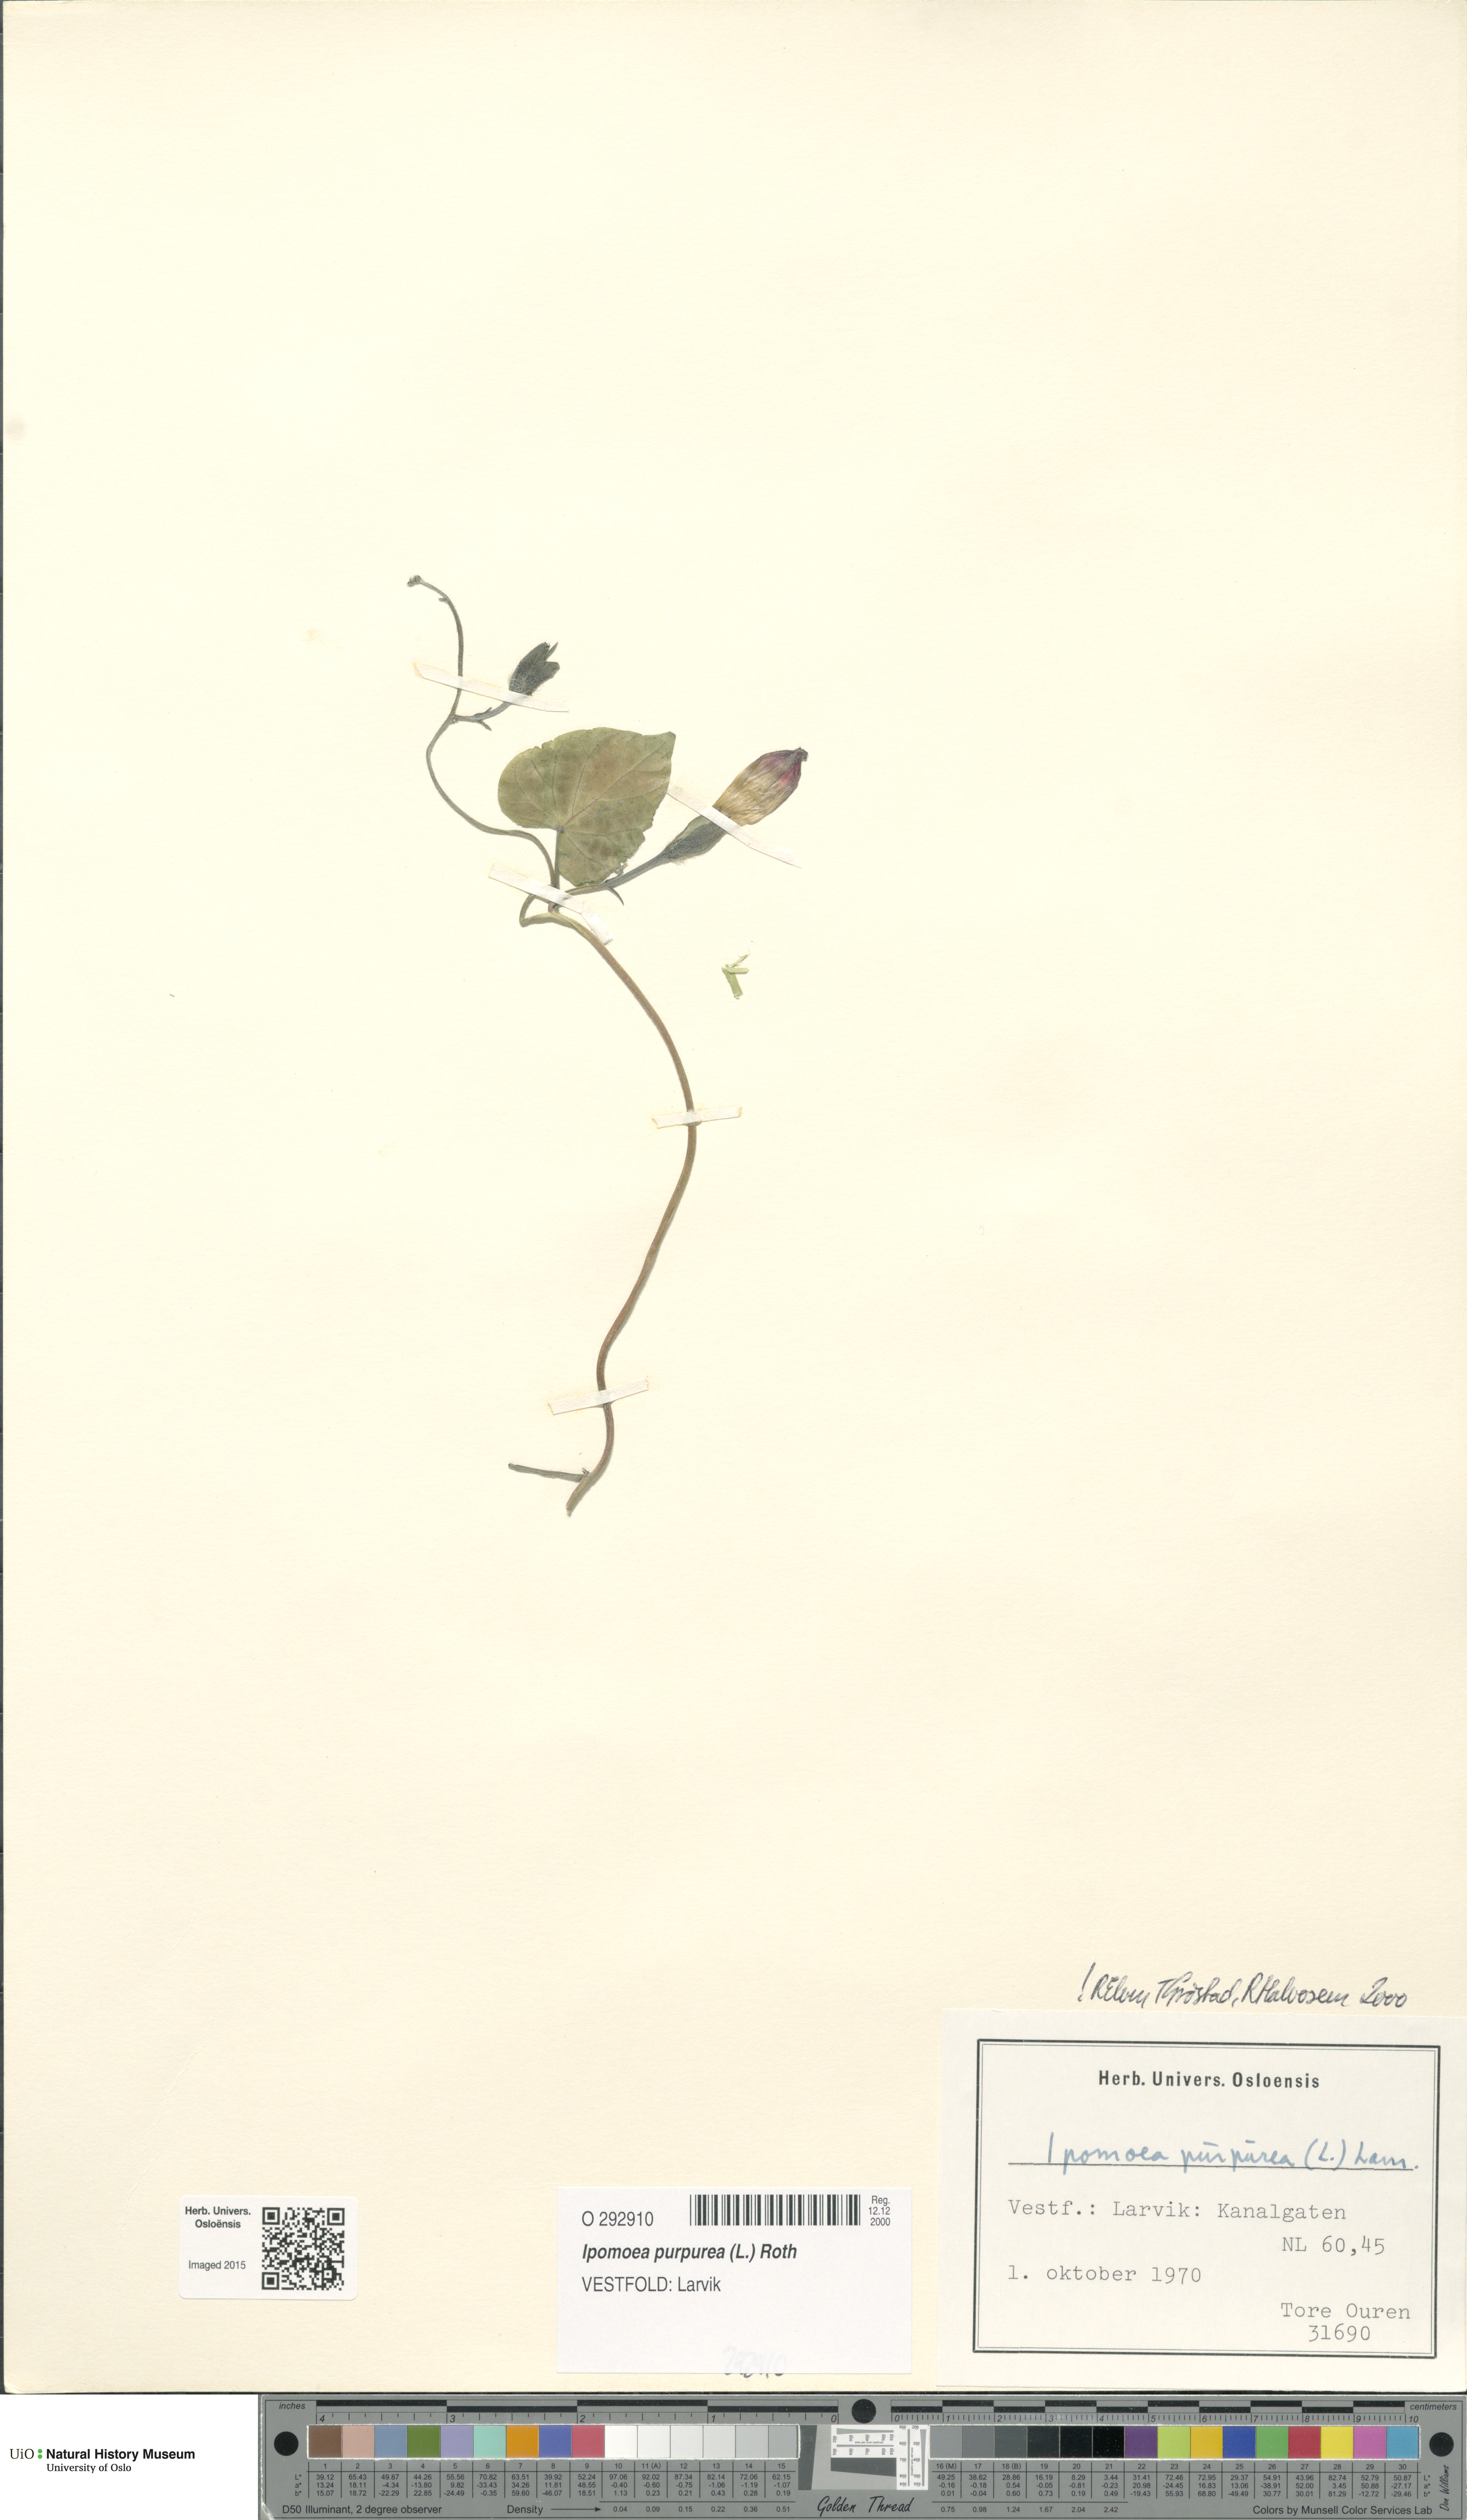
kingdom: Plantae
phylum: Tracheophyta
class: Magnoliopsida
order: Solanales
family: Convolvulaceae
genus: Ipomoea
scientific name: Ipomoea purpurea
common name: Common morning-glory
